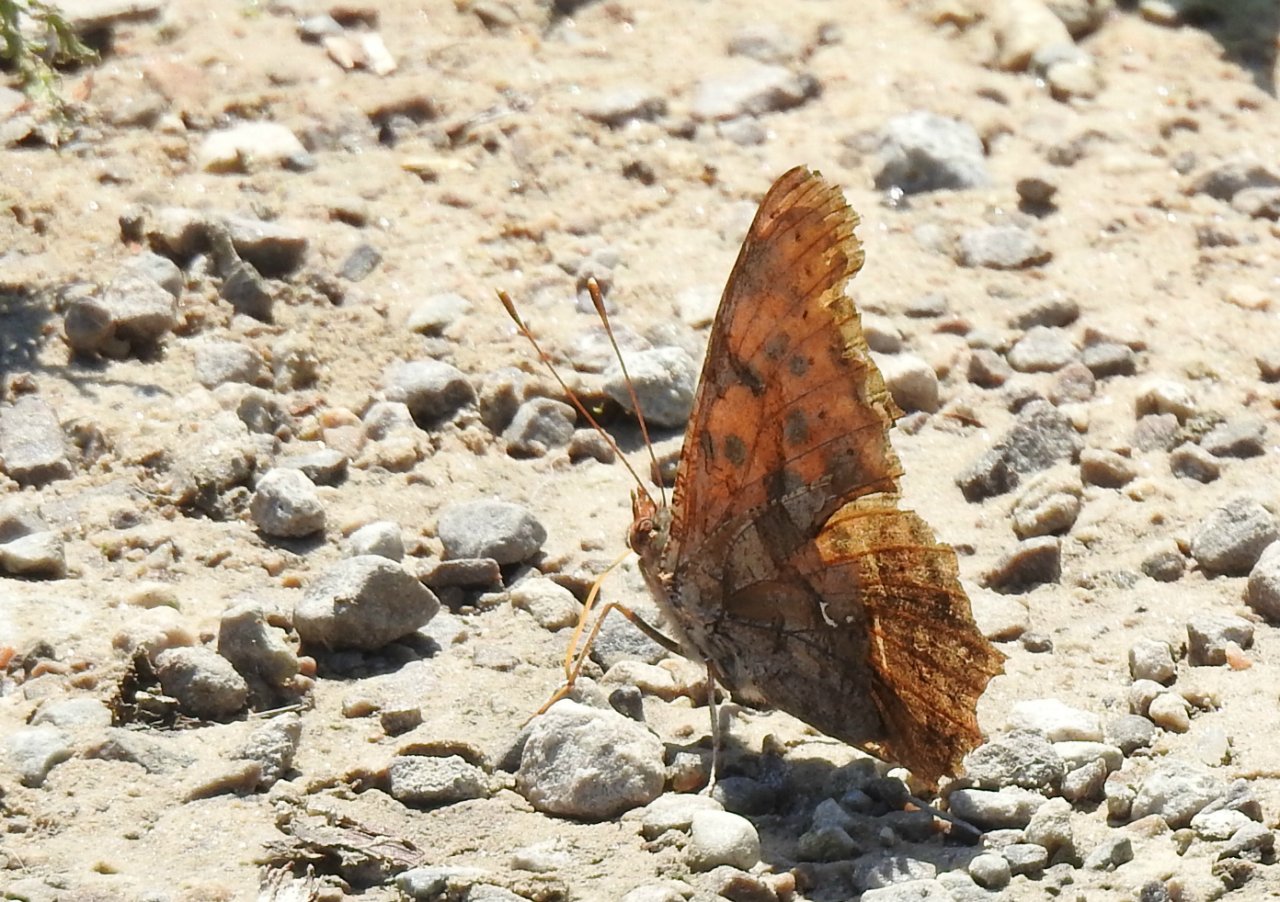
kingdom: Animalia
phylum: Arthropoda
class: Insecta
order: Lepidoptera
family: Nymphalidae
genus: Polygonia
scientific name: Polygonia interrogationis
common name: Question Mark
